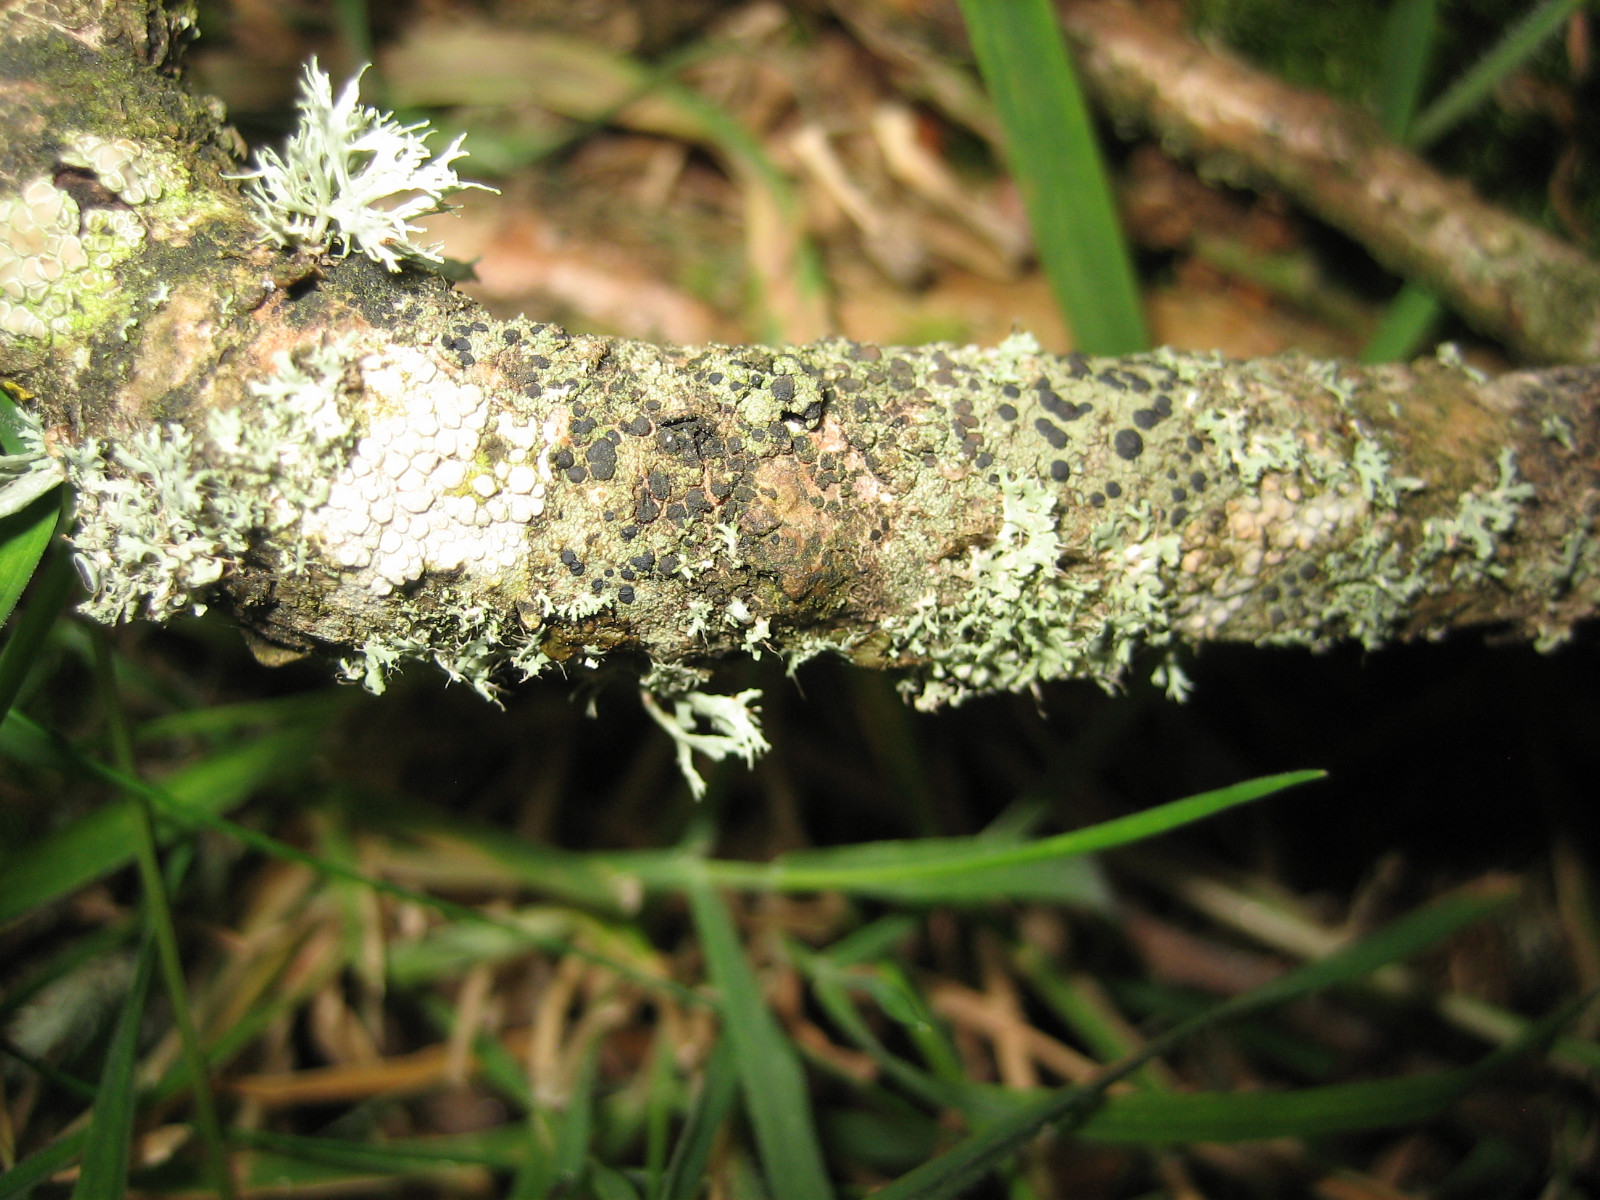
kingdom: Fungi
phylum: Ascomycota
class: Lecanoromycetes
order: Lecanorales
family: Lecanoraceae
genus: Glaucomaria
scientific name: Glaucomaria carpinea
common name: hviddugget kantskivelav
